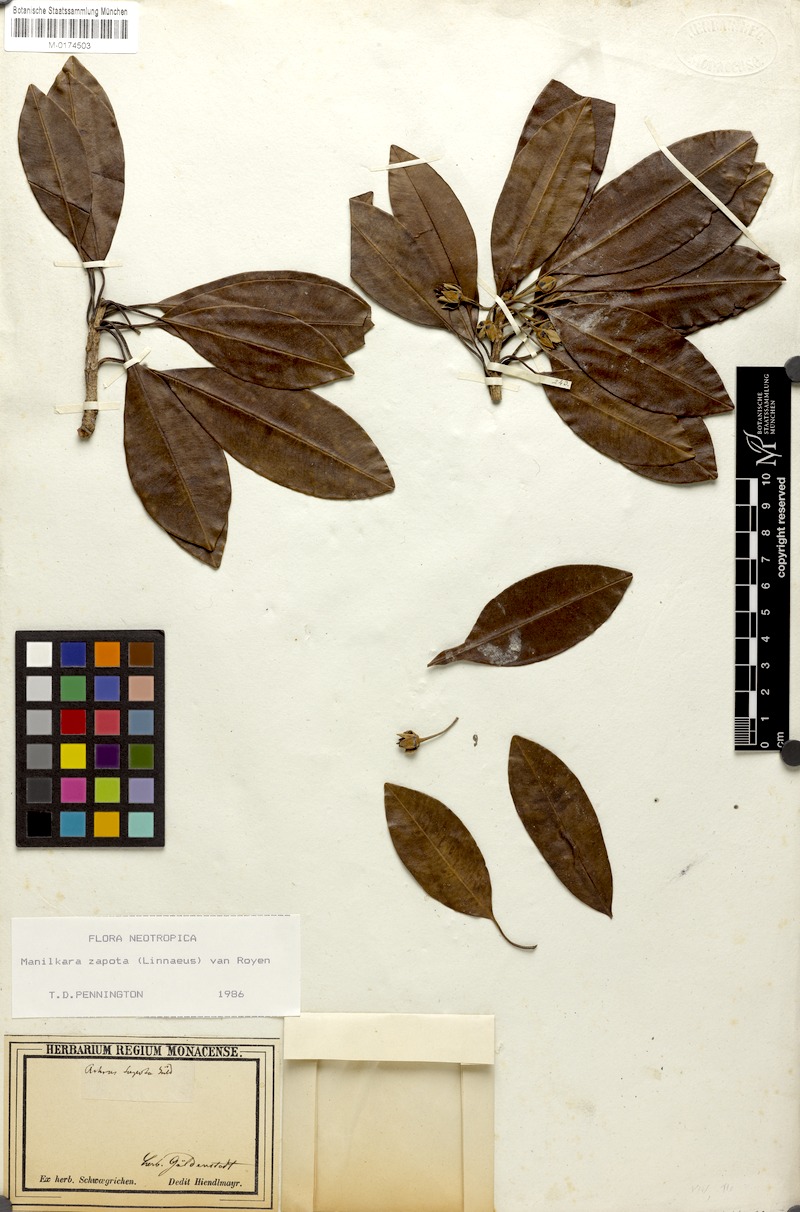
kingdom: Plantae
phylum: Tracheophyta
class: Magnoliopsida
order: Ericales
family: Sapotaceae
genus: Manilkara
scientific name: Manilkara zapota
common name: Sapodilla
